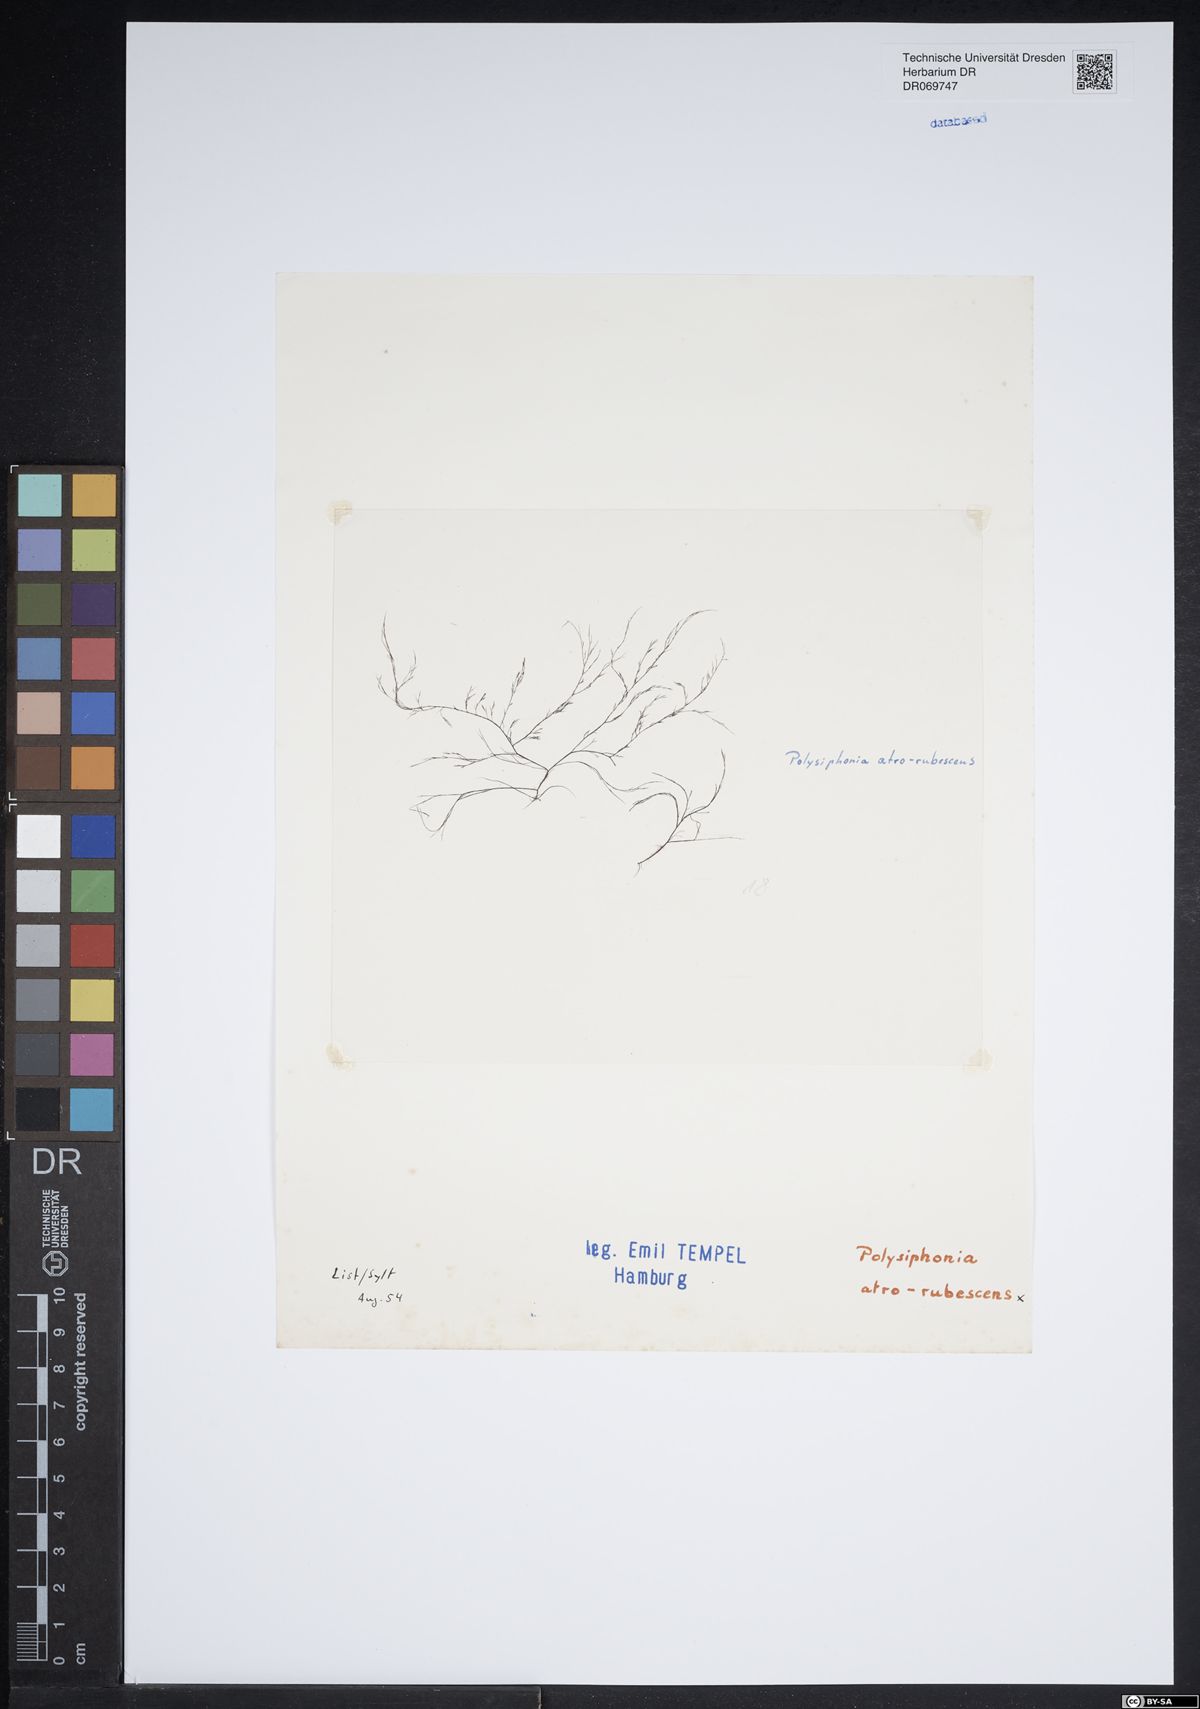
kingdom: Plantae
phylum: Rhodophyta
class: Florideophyceae
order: Ceramiales
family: Rhodomelaceae
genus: Vertebrata
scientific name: Vertebrata nigra
